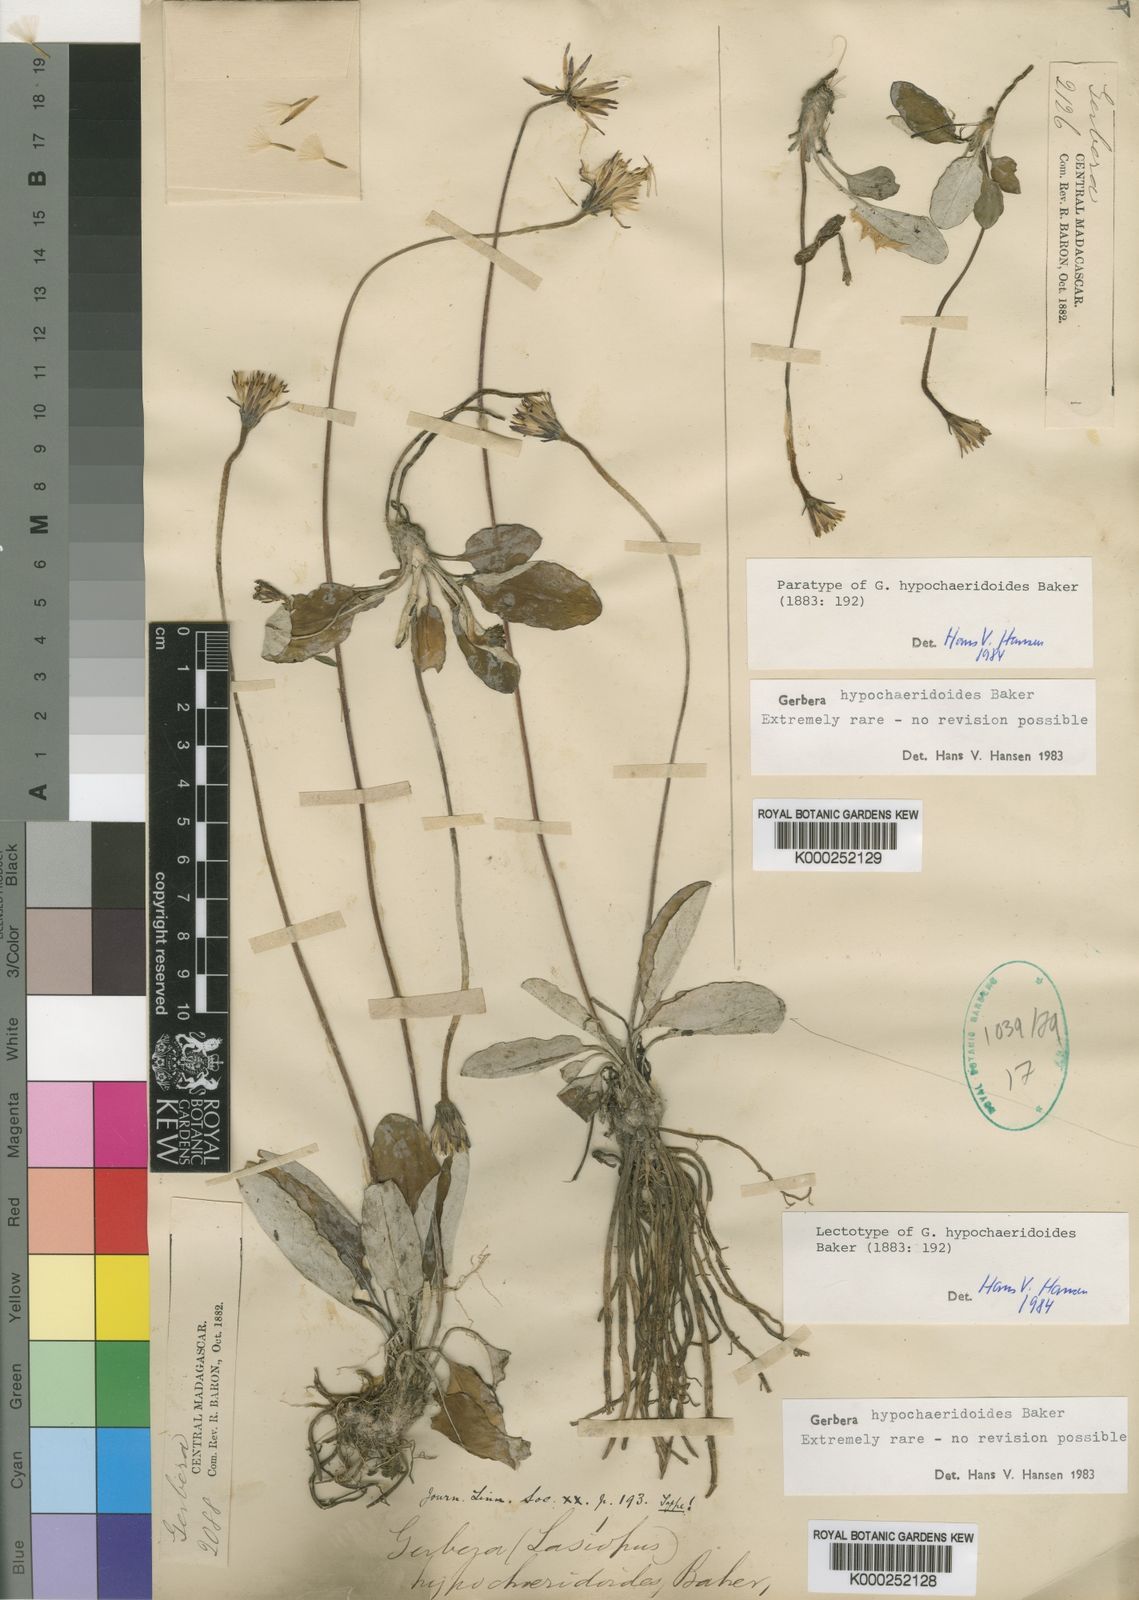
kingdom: Plantae
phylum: Tracheophyta
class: Magnoliopsida
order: Asterales
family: Asteraceae
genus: Gerbera
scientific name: Gerbera hypochaeridoides
